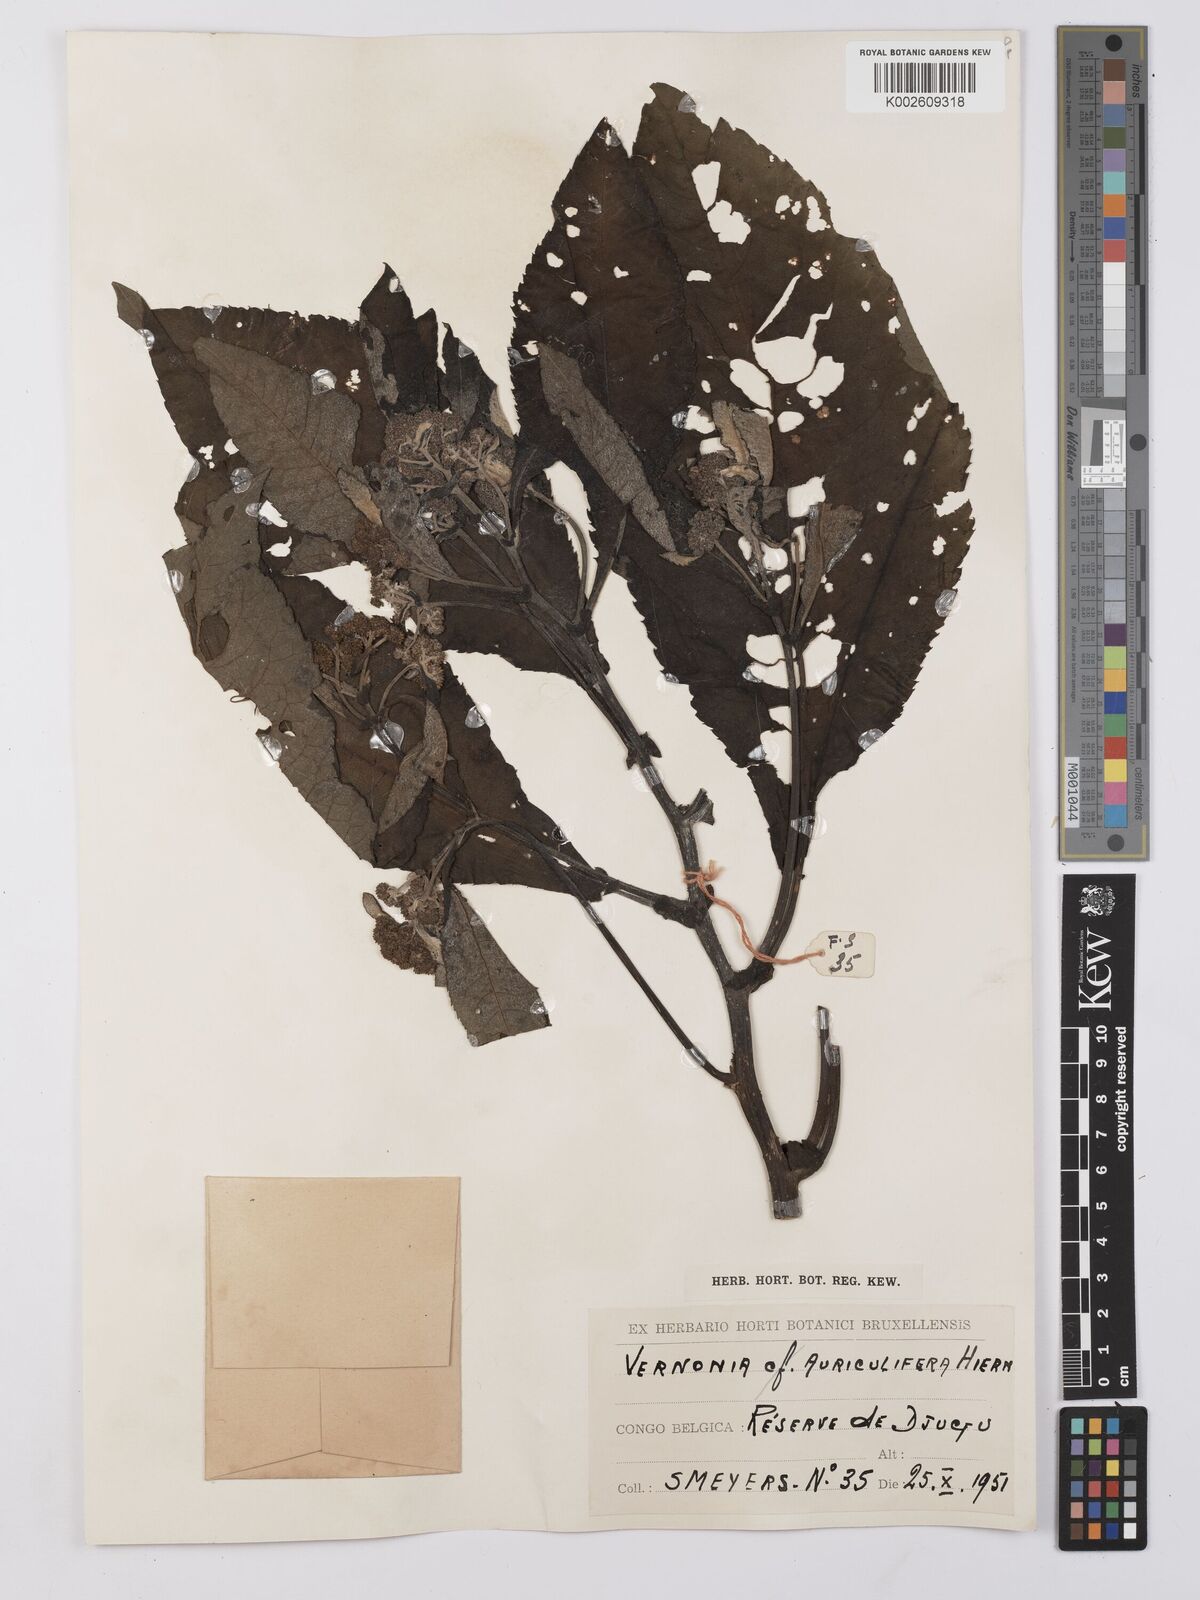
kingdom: Plantae
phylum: Tracheophyta
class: Magnoliopsida
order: Asterales
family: Asteraceae
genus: Gymnanthemum
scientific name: Gymnanthemum auriculiferum
